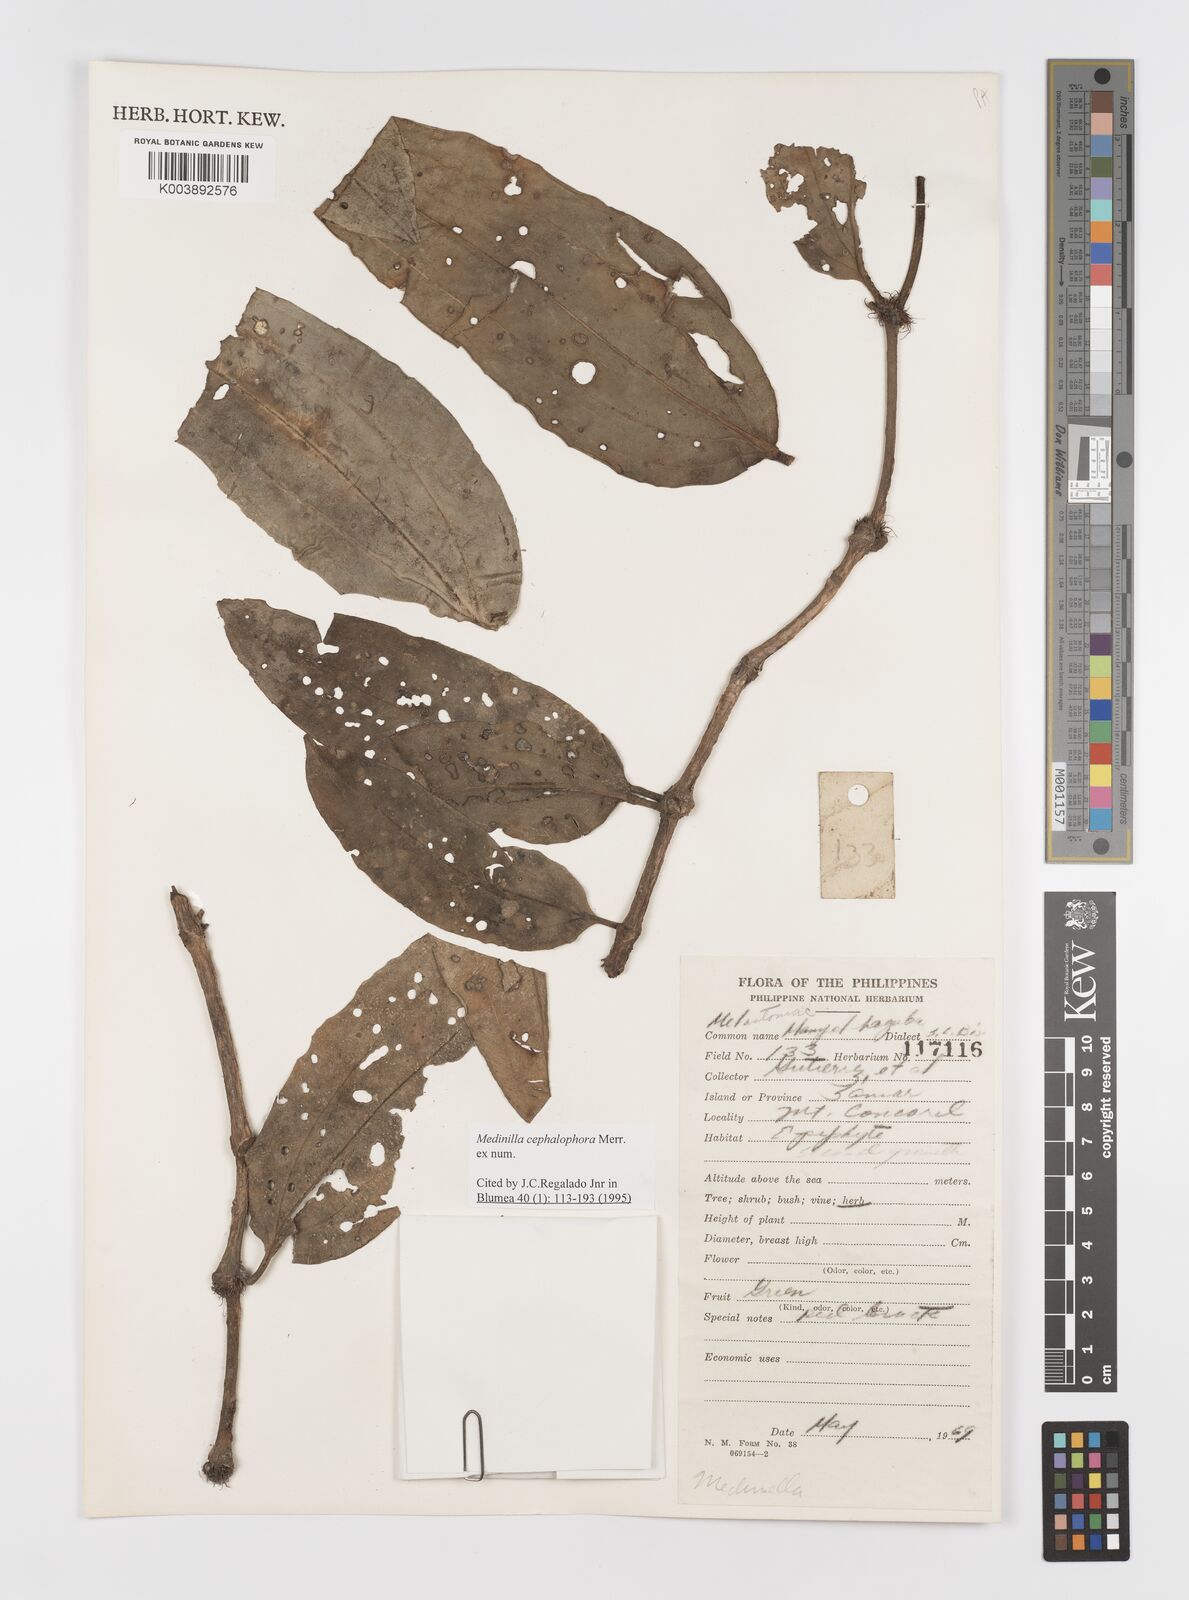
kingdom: Plantae
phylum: Tracheophyta
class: Magnoliopsida
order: Myrtales
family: Melastomataceae
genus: Medinilla
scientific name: Medinilla cephalophora
